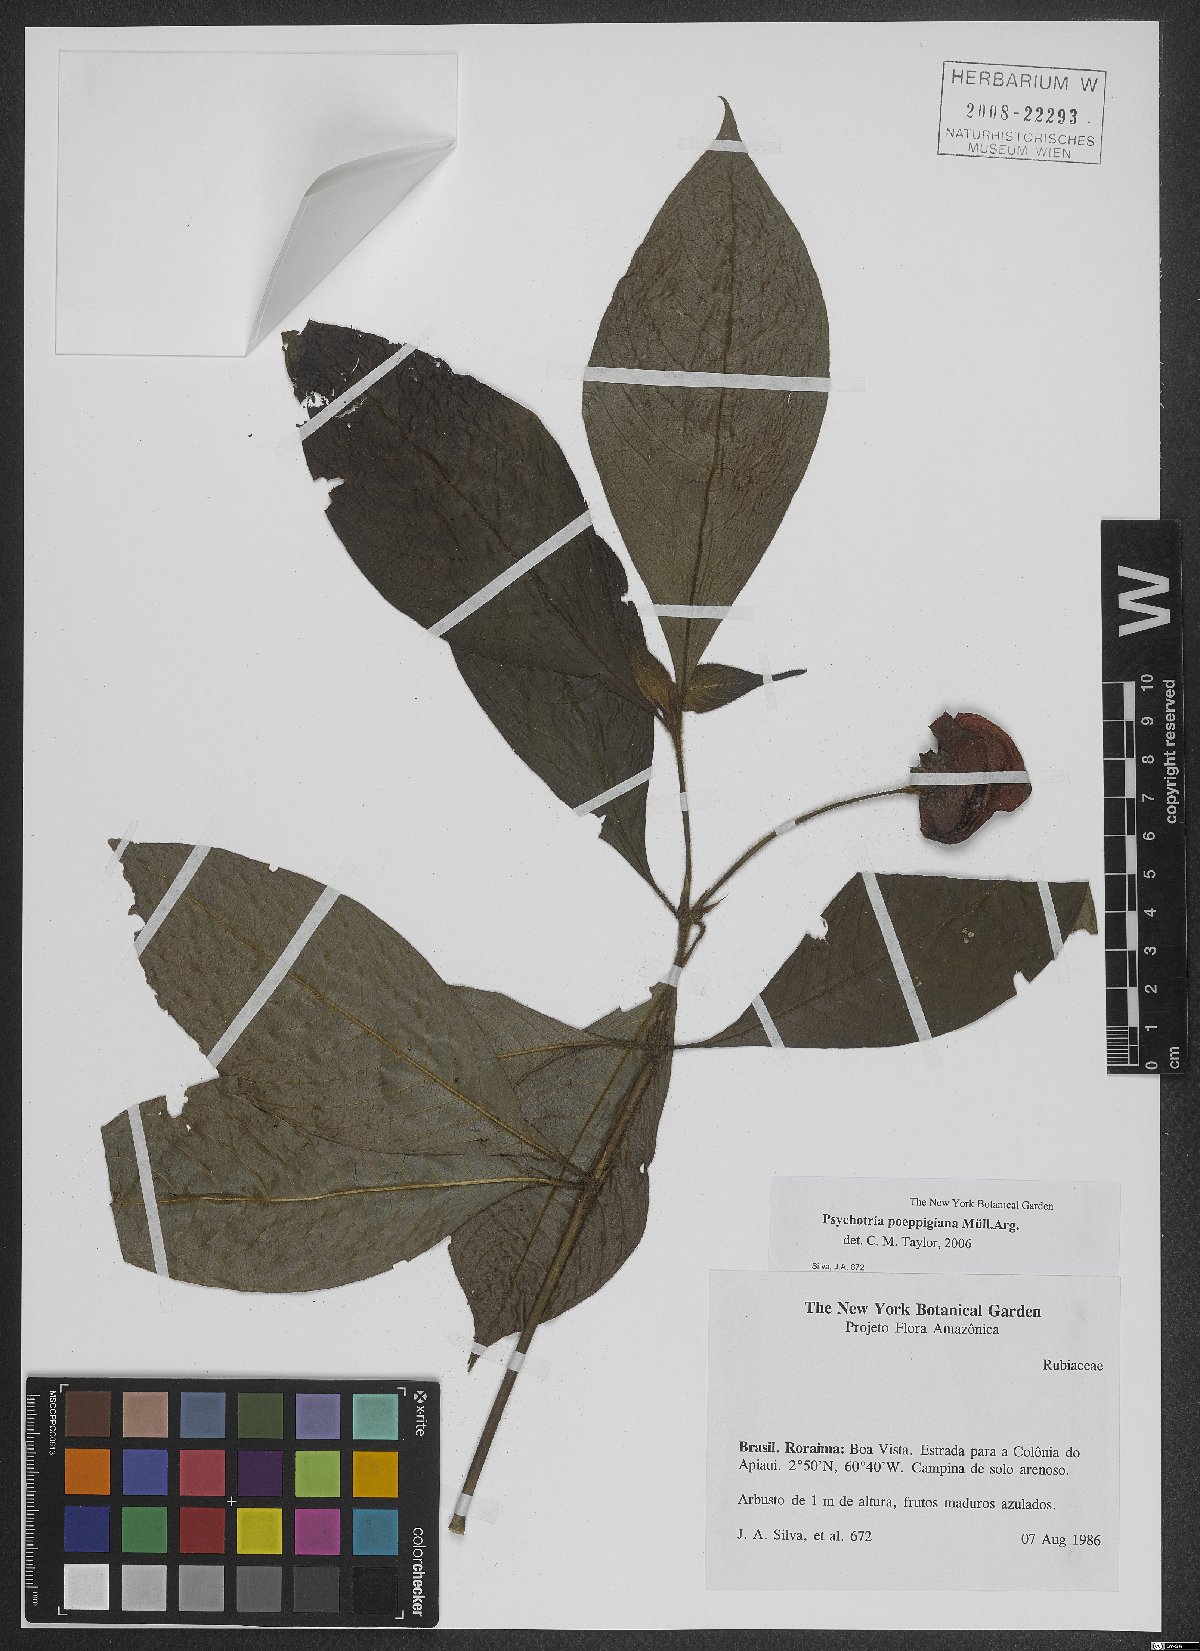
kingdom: Plantae
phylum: Tracheophyta
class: Magnoliopsida
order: Gentianales
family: Rubiaceae
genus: Palicourea
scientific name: Palicourea tomentosa
